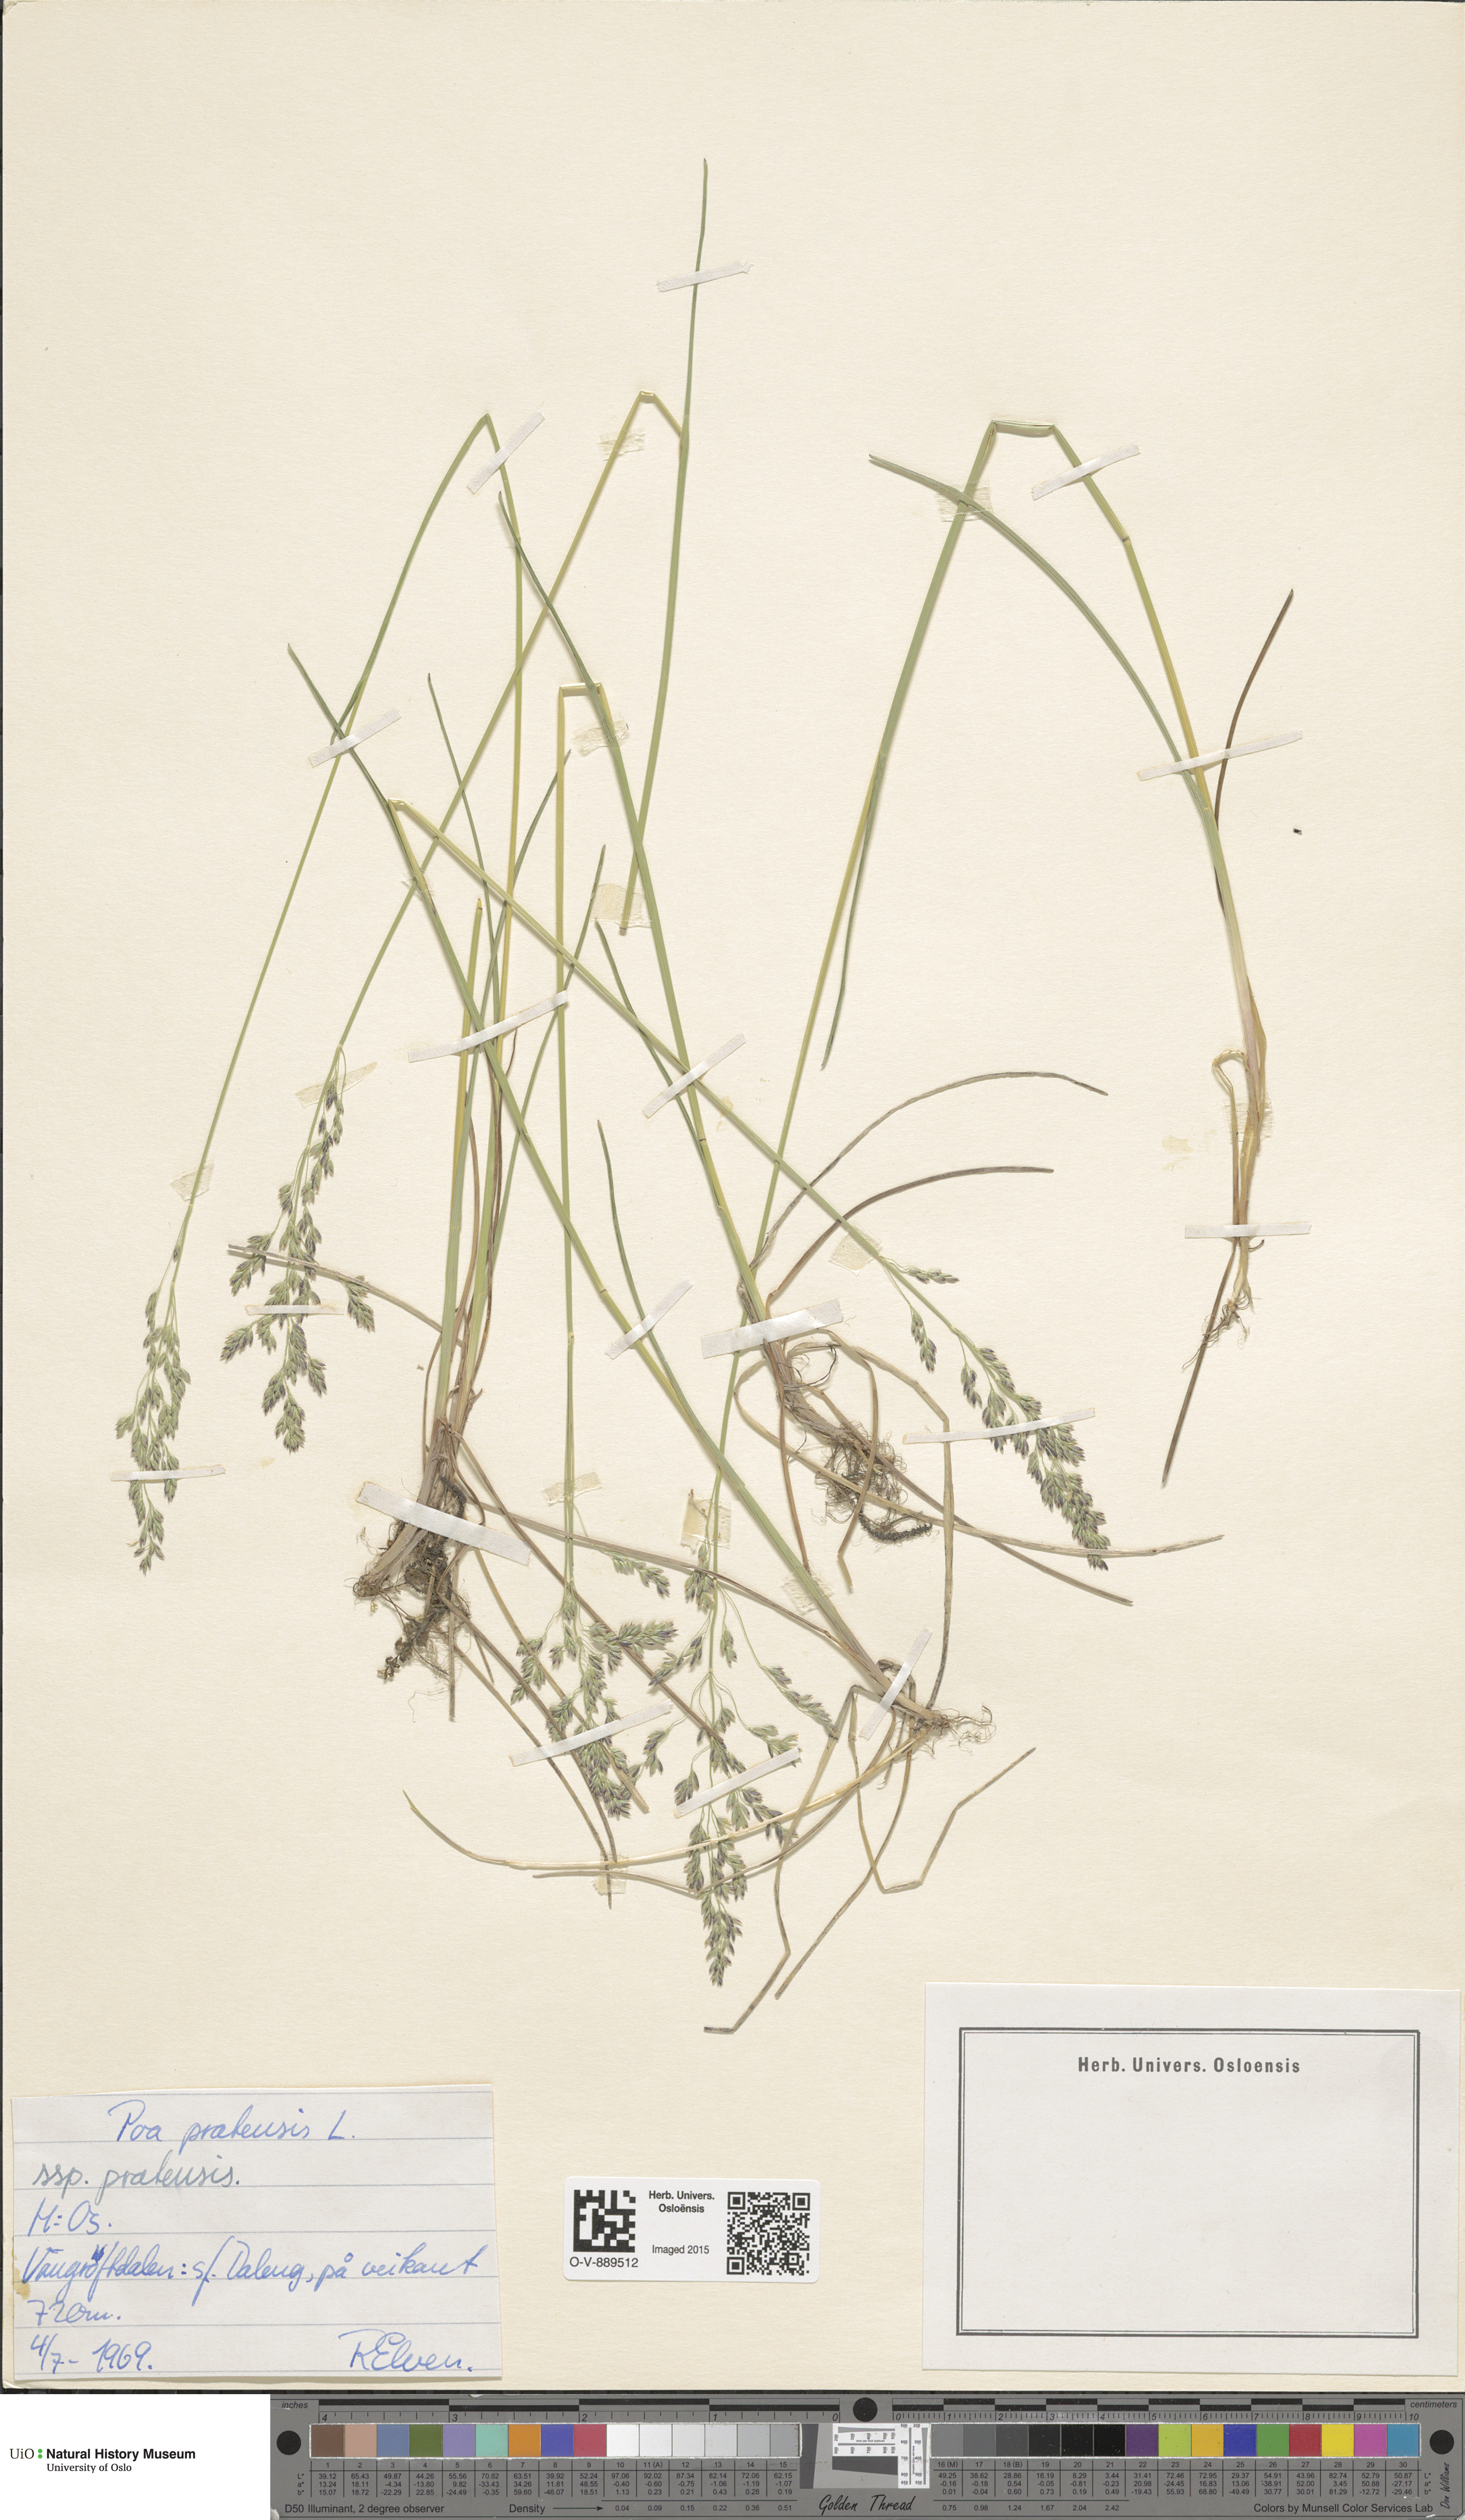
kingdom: Plantae
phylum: Tracheophyta
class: Liliopsida
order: Poales
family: Poaceae
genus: Poa
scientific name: Poa pratensis
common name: Kentucky bluegrass
